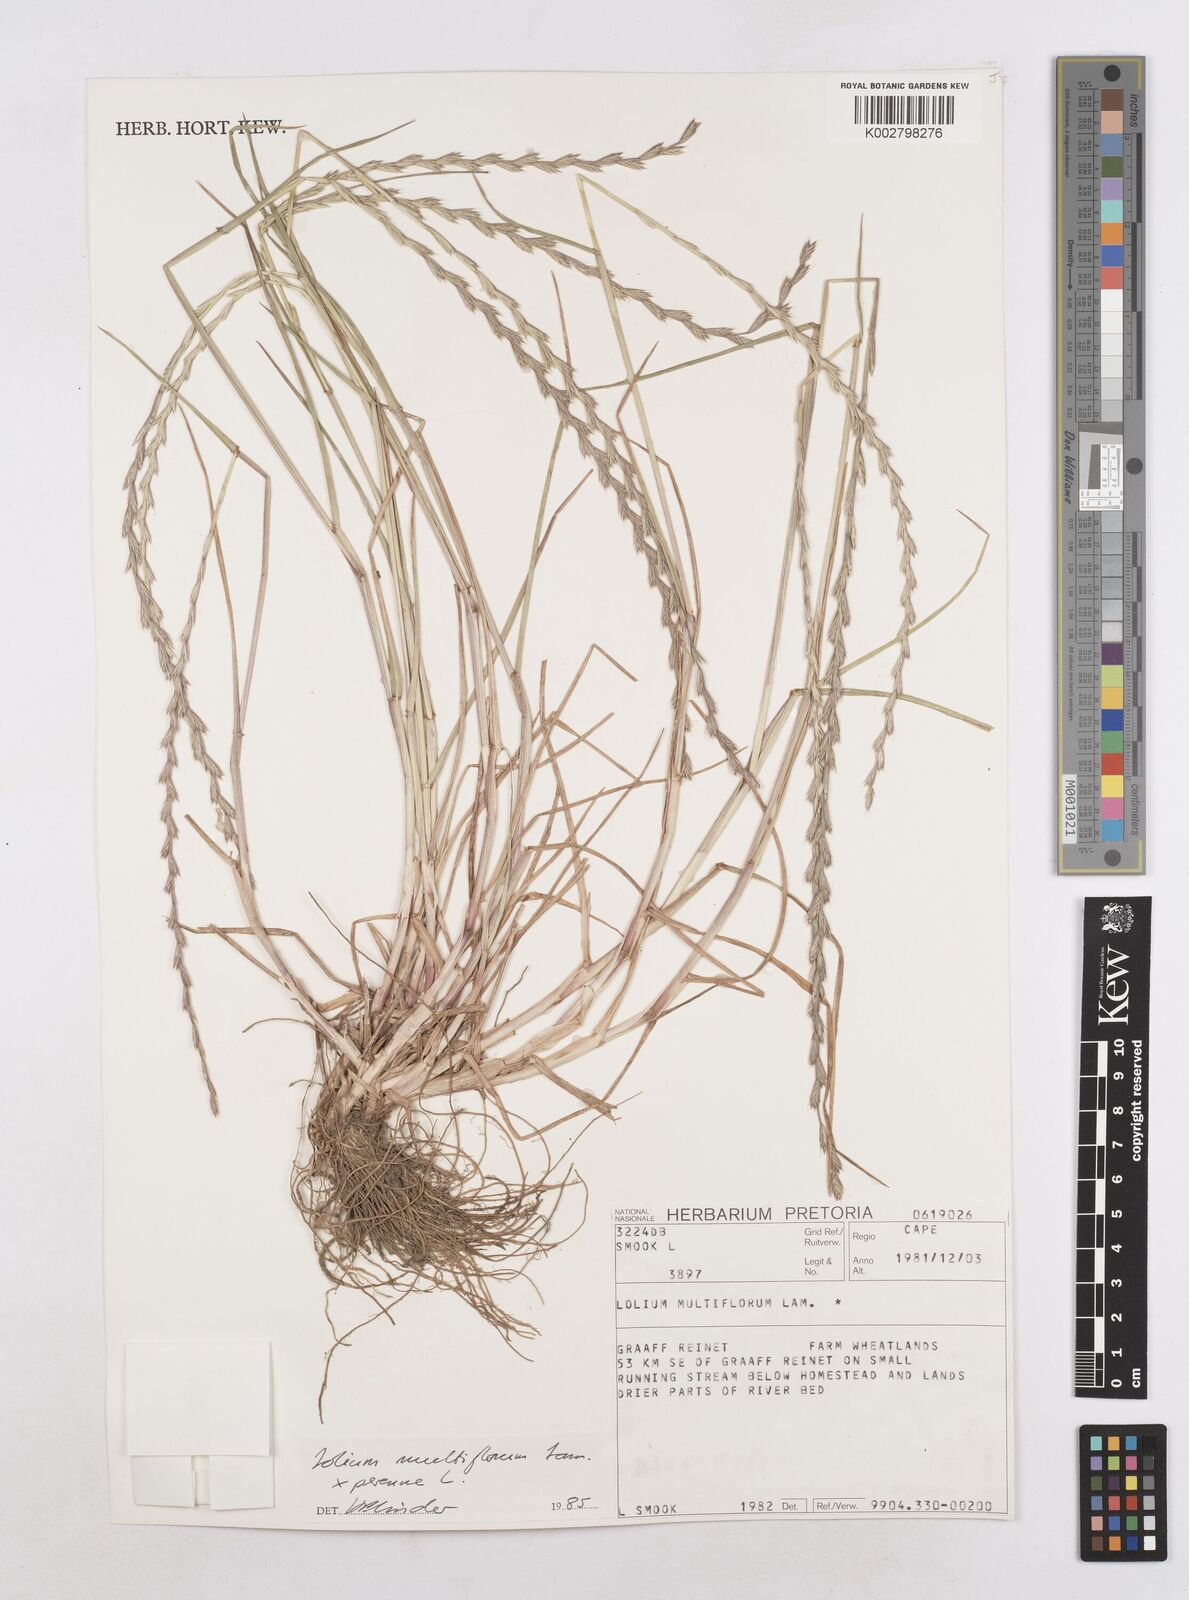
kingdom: Plantae
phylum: Tracheophyta
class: Liliopsida
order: Poales
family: Poaceae
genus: Lolium
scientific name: Lolium multiflorum
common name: Annual ryegrass
